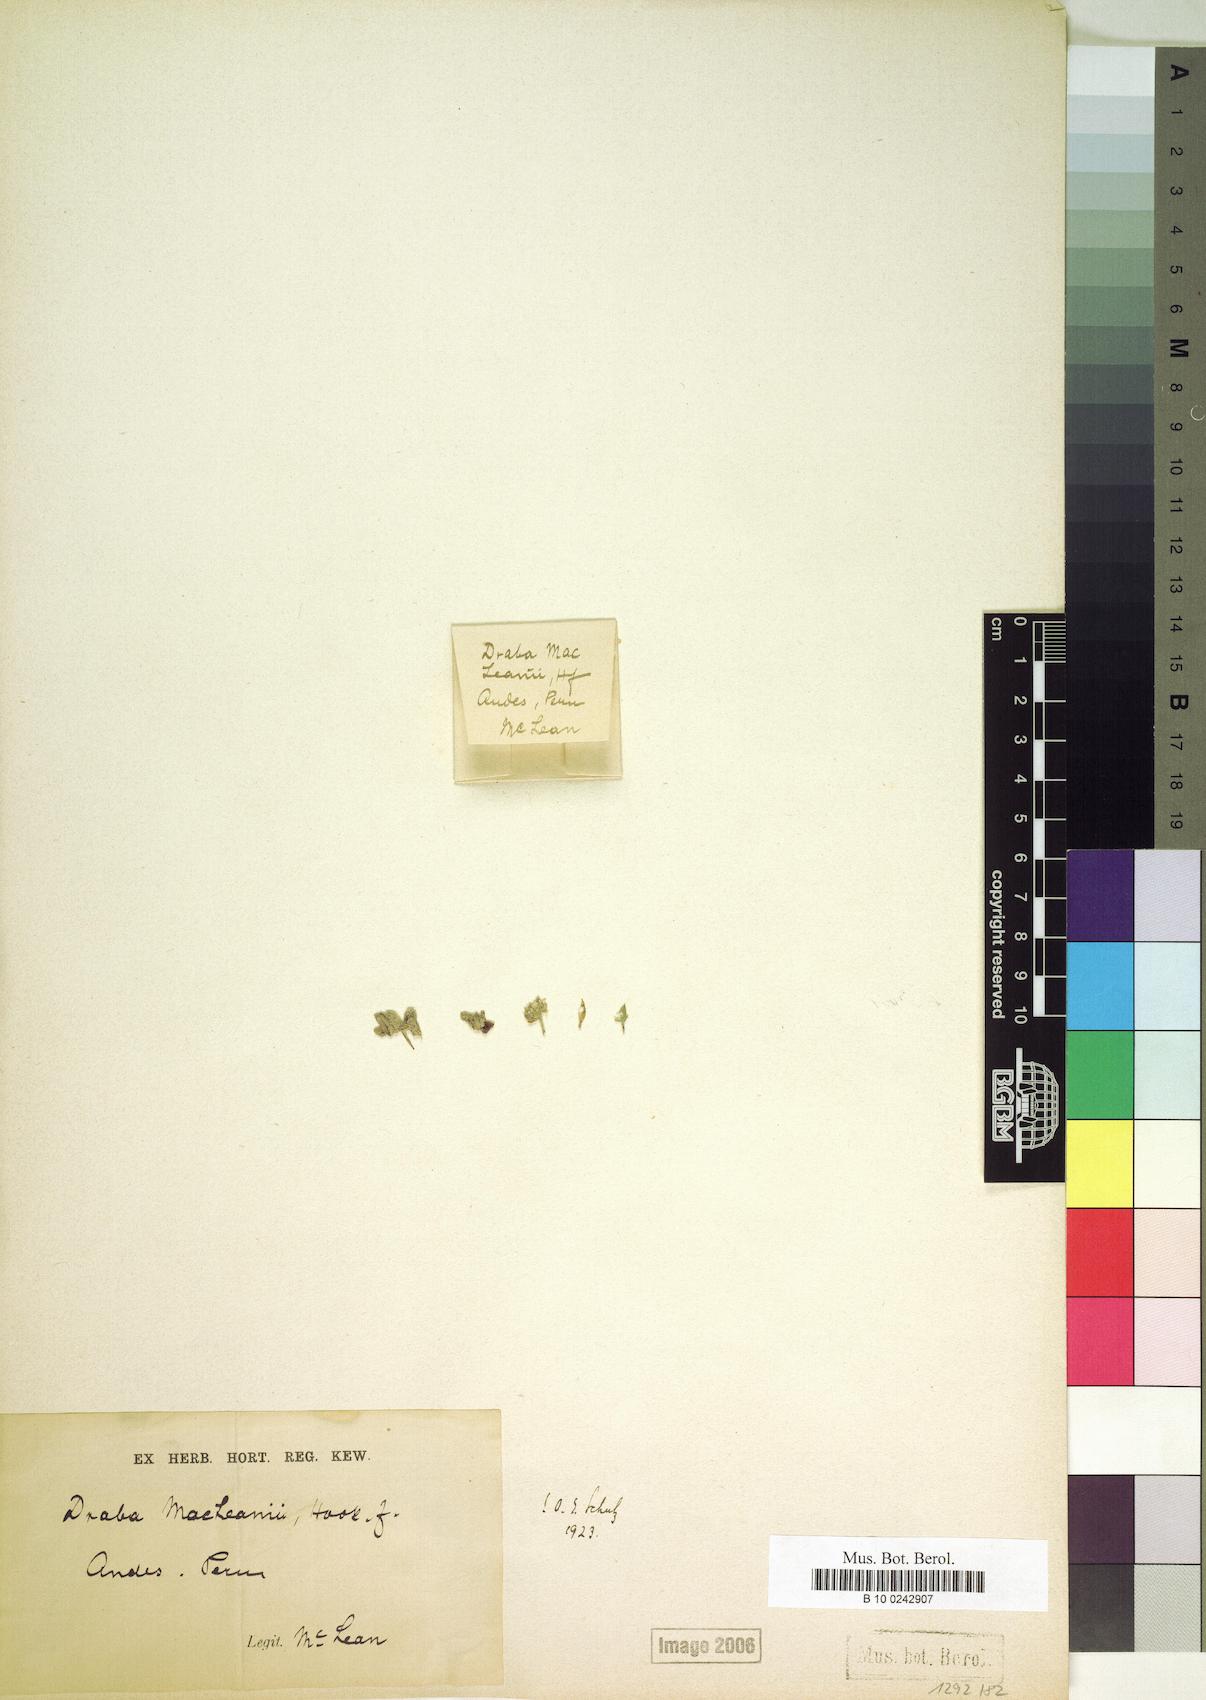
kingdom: Plantae
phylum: Tracheophyta
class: Magnoliopsida
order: Brassicales
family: Brassicaceae
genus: Draba
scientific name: Draba macleanii
